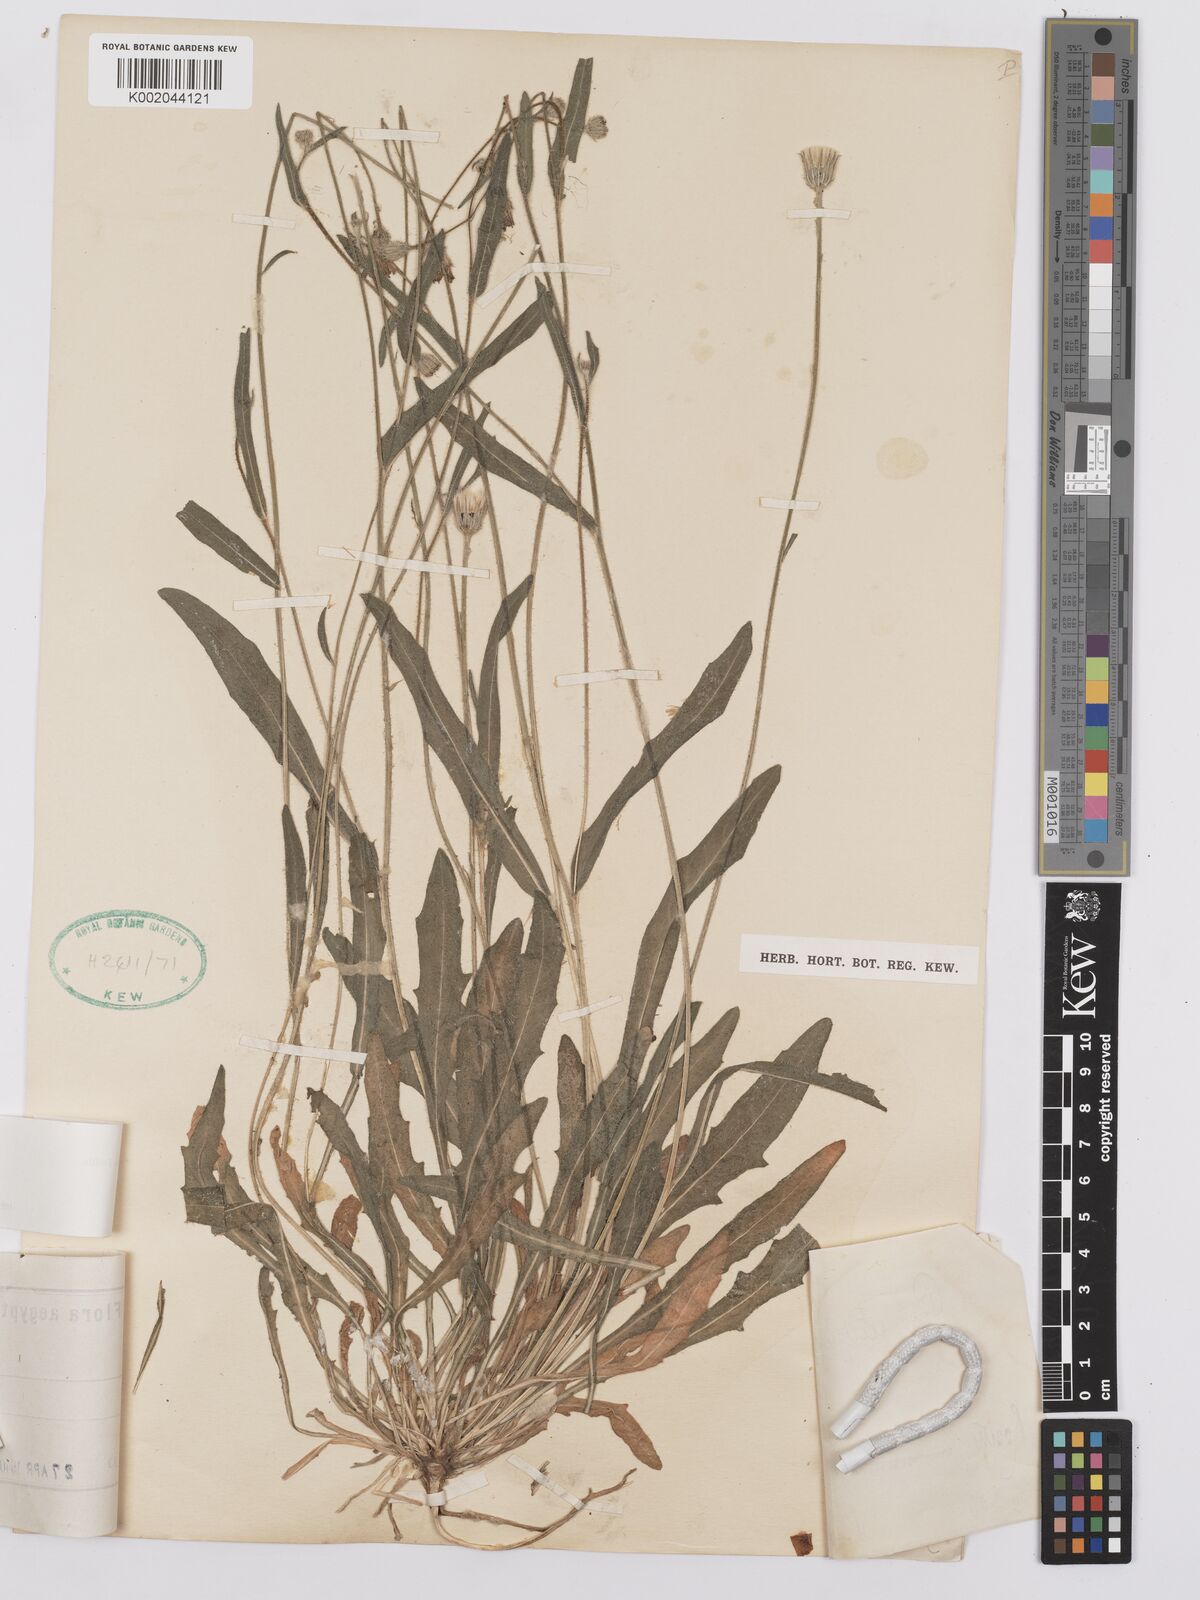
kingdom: Plantae
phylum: Tracheophyta
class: Magnoliopsida
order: Asterales
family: Asteraceae
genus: Picris
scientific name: Picris sulphurea
